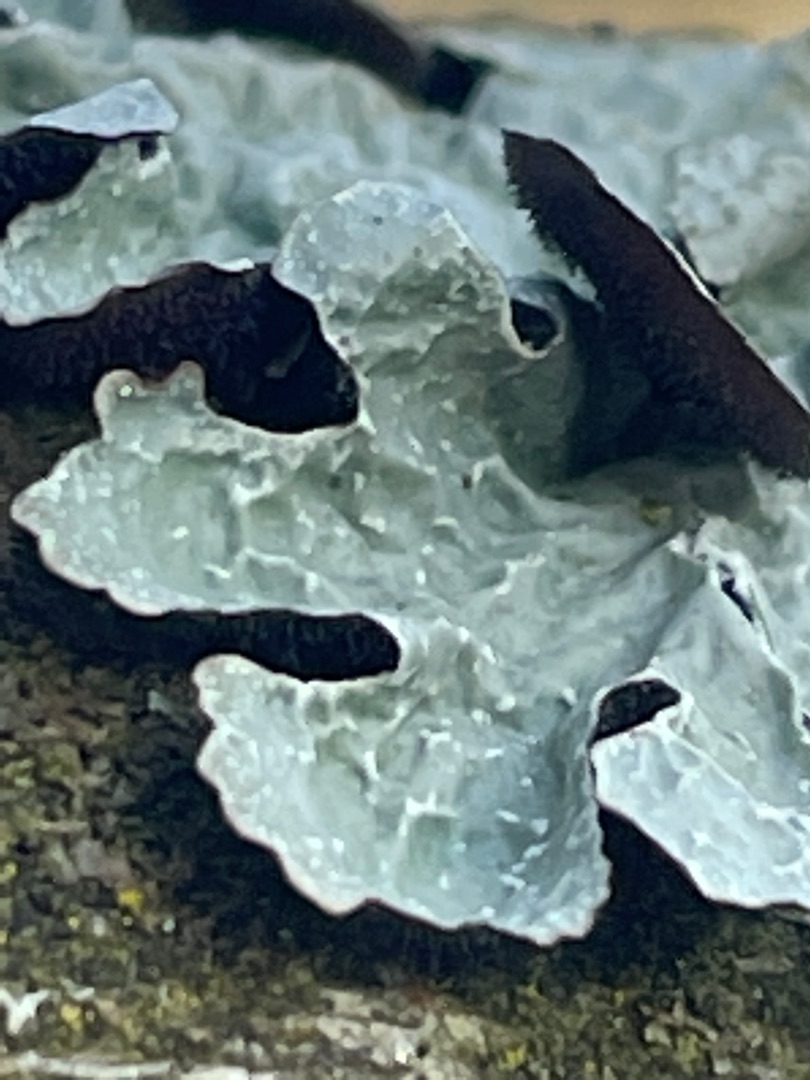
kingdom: Fungi
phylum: Ascomycota
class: Lecanoromycetes
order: Lecanorales
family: Parmeliaceae
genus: Parmelia
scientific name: Parmelia sulcata
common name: Rynket skållav
